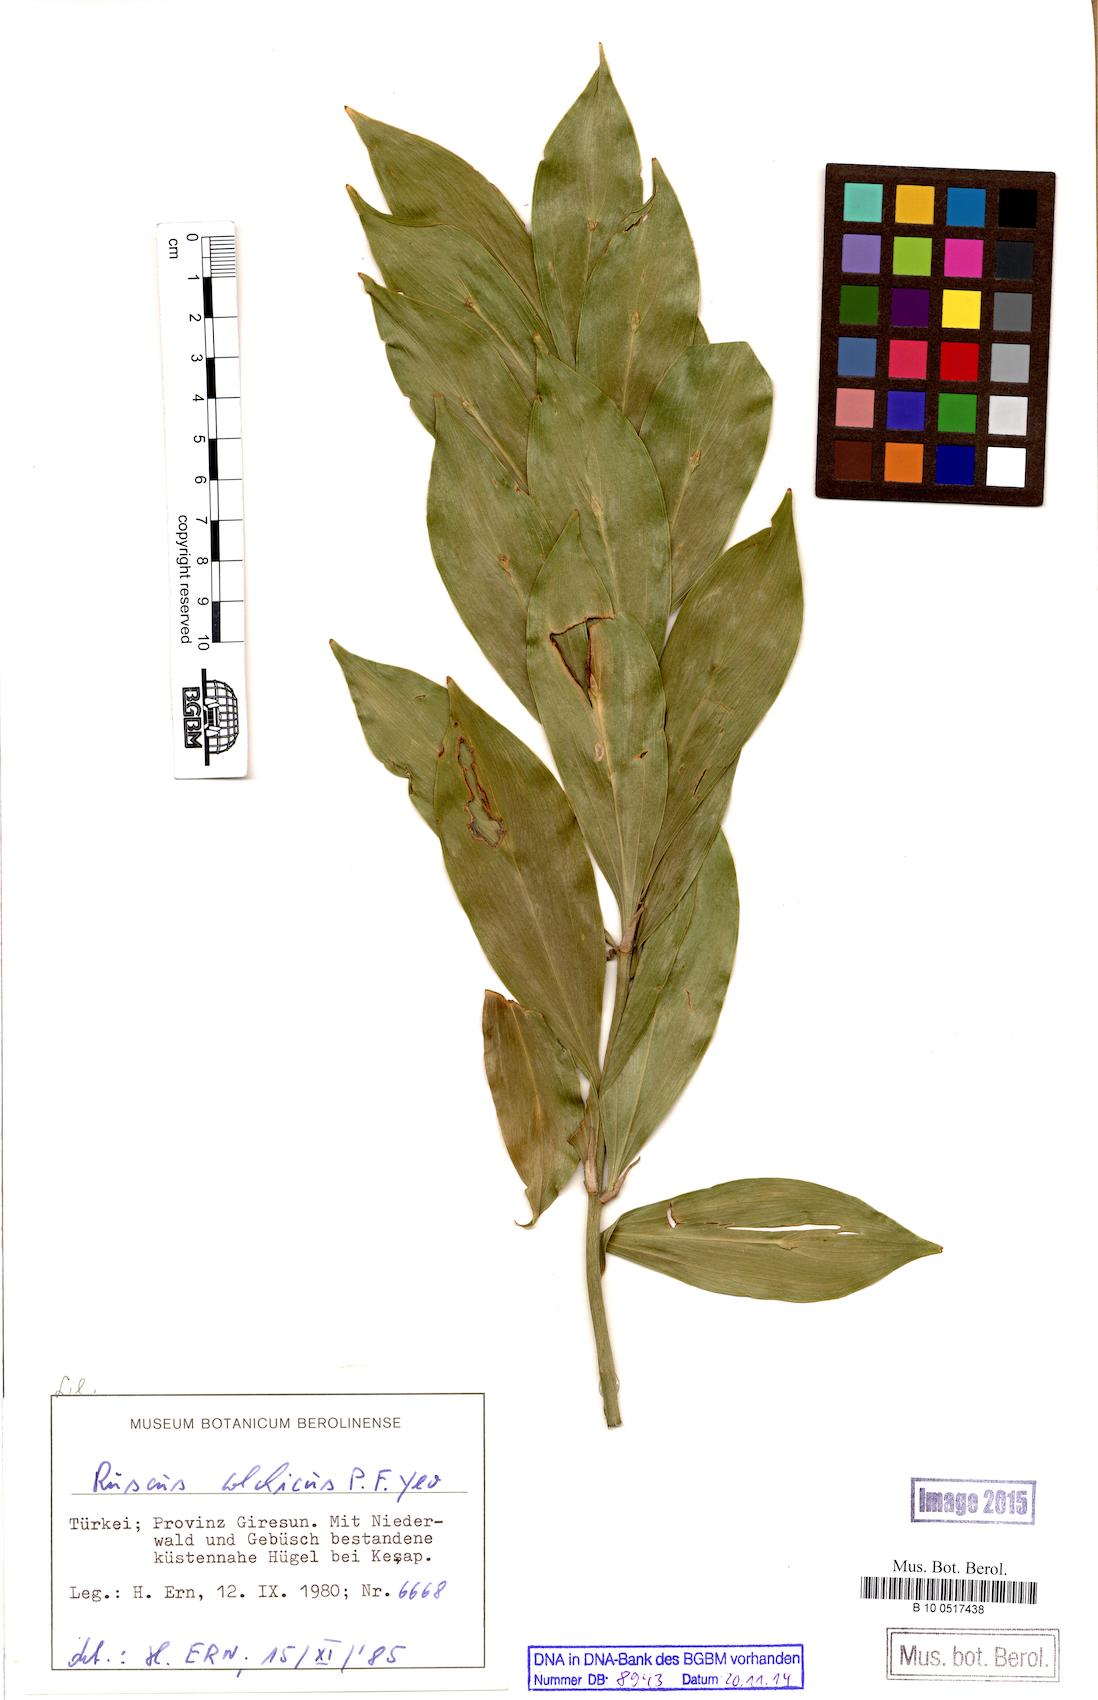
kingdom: Plantae
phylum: Tracheophyta
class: Liliopsida
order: Asparagales
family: Asparagaceae
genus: Ruscus
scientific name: Ruscus colchicus
